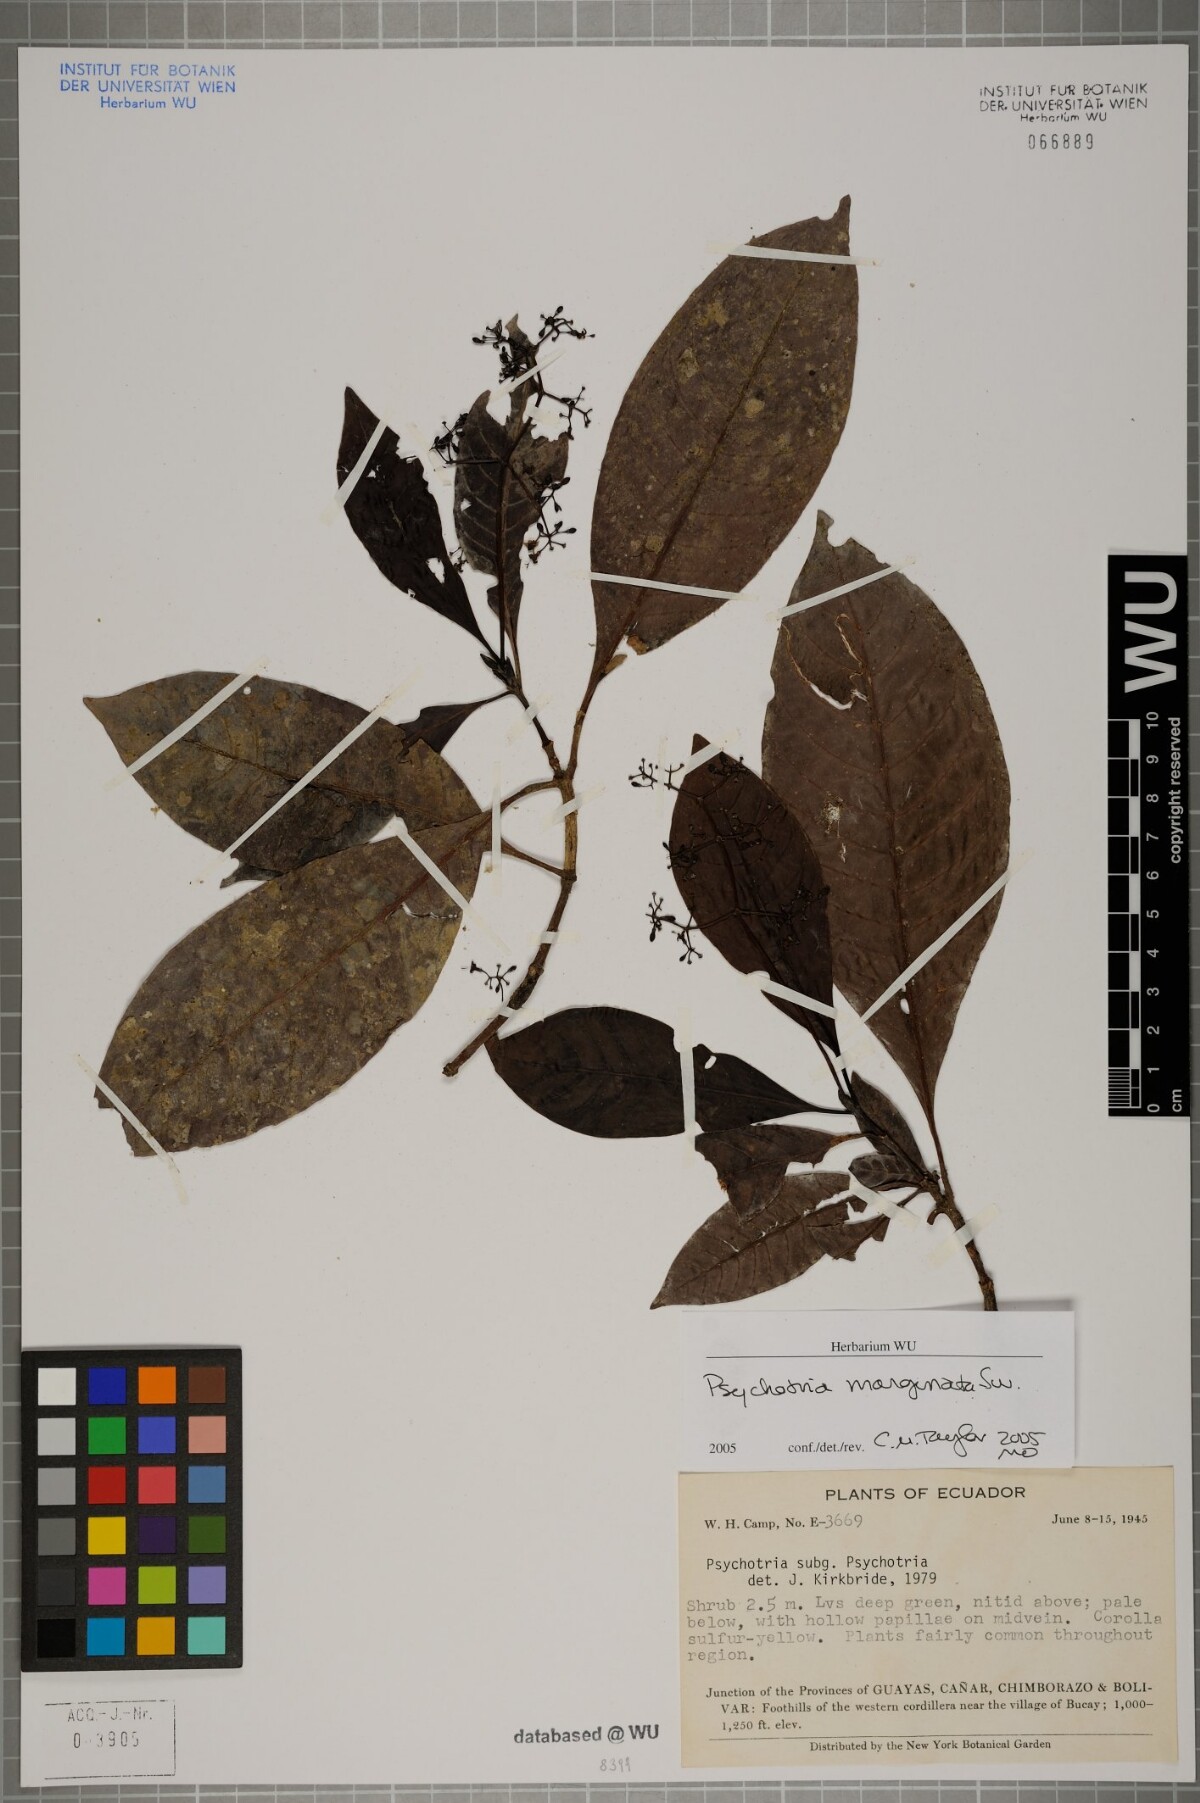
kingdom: Plantae
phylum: Tracheophyta
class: Magnoliopsida
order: Gentianales
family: Rubiaceae
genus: Psychotria
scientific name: Psychotria marginata
